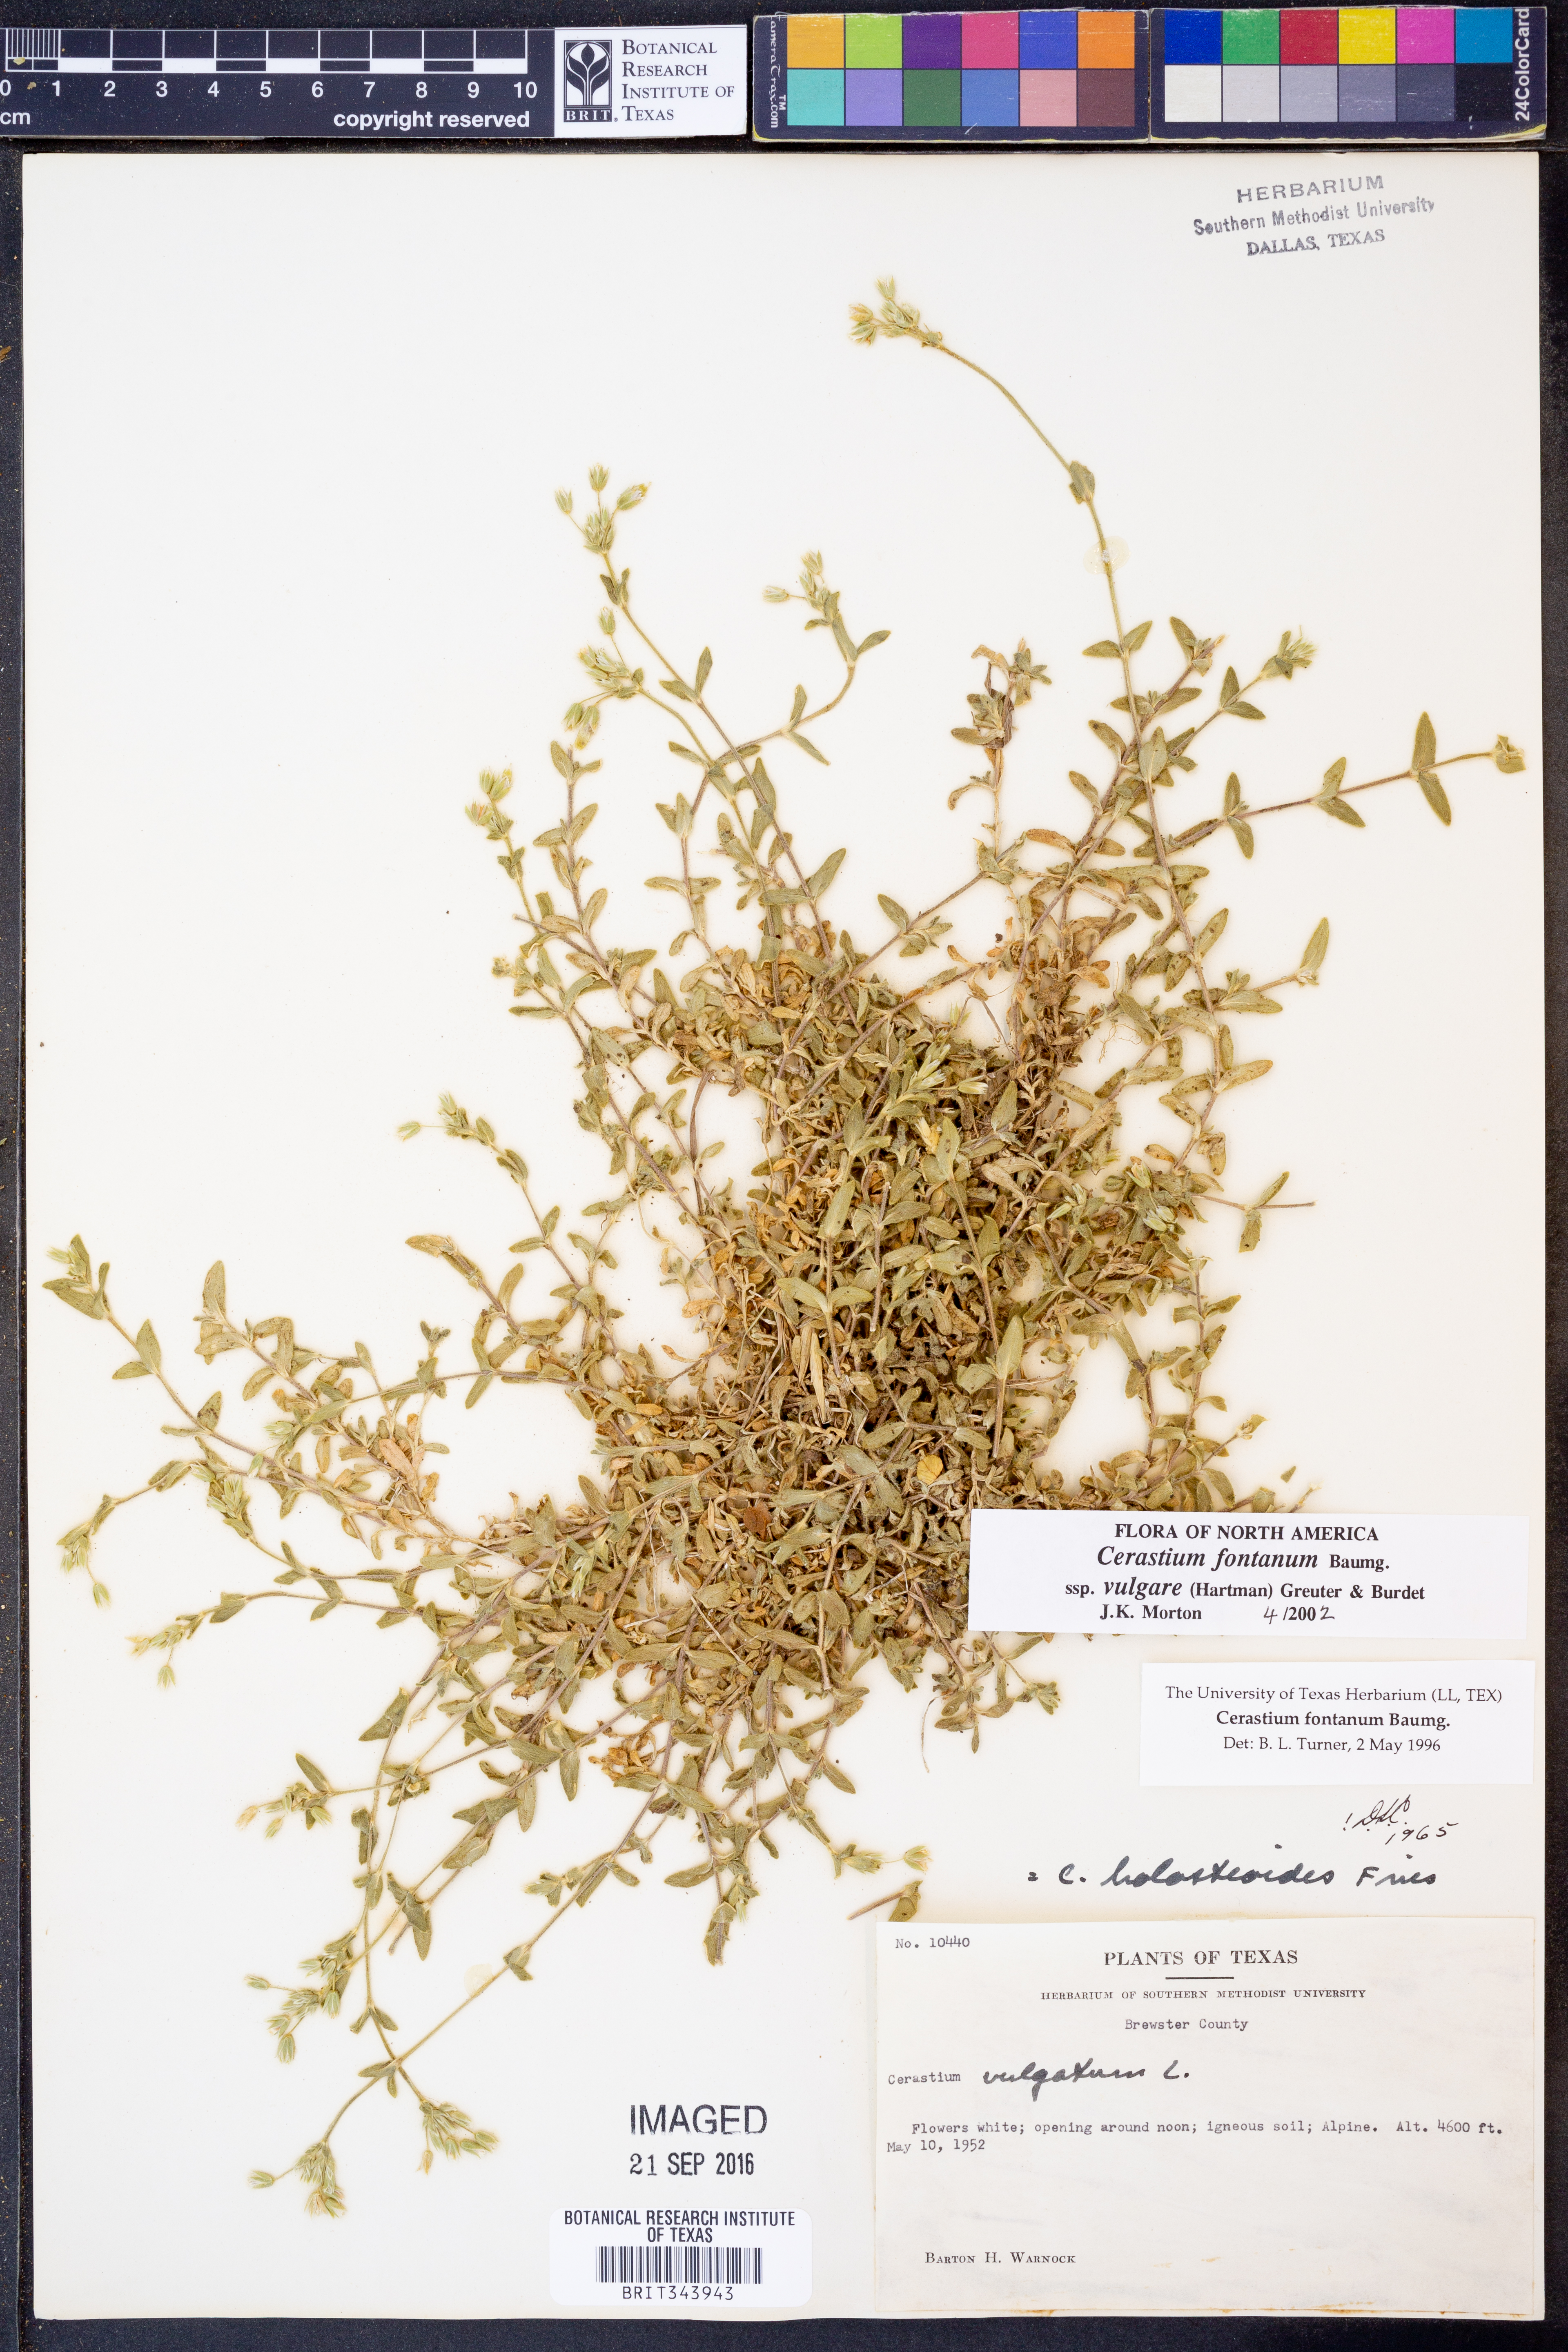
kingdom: Plantae
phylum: Tracheophyta
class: Magnoliopsida
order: Caryophyllales
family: Caryophyllaceae
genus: Cerastium
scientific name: Cerastium holosteoides
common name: Big chickweed
